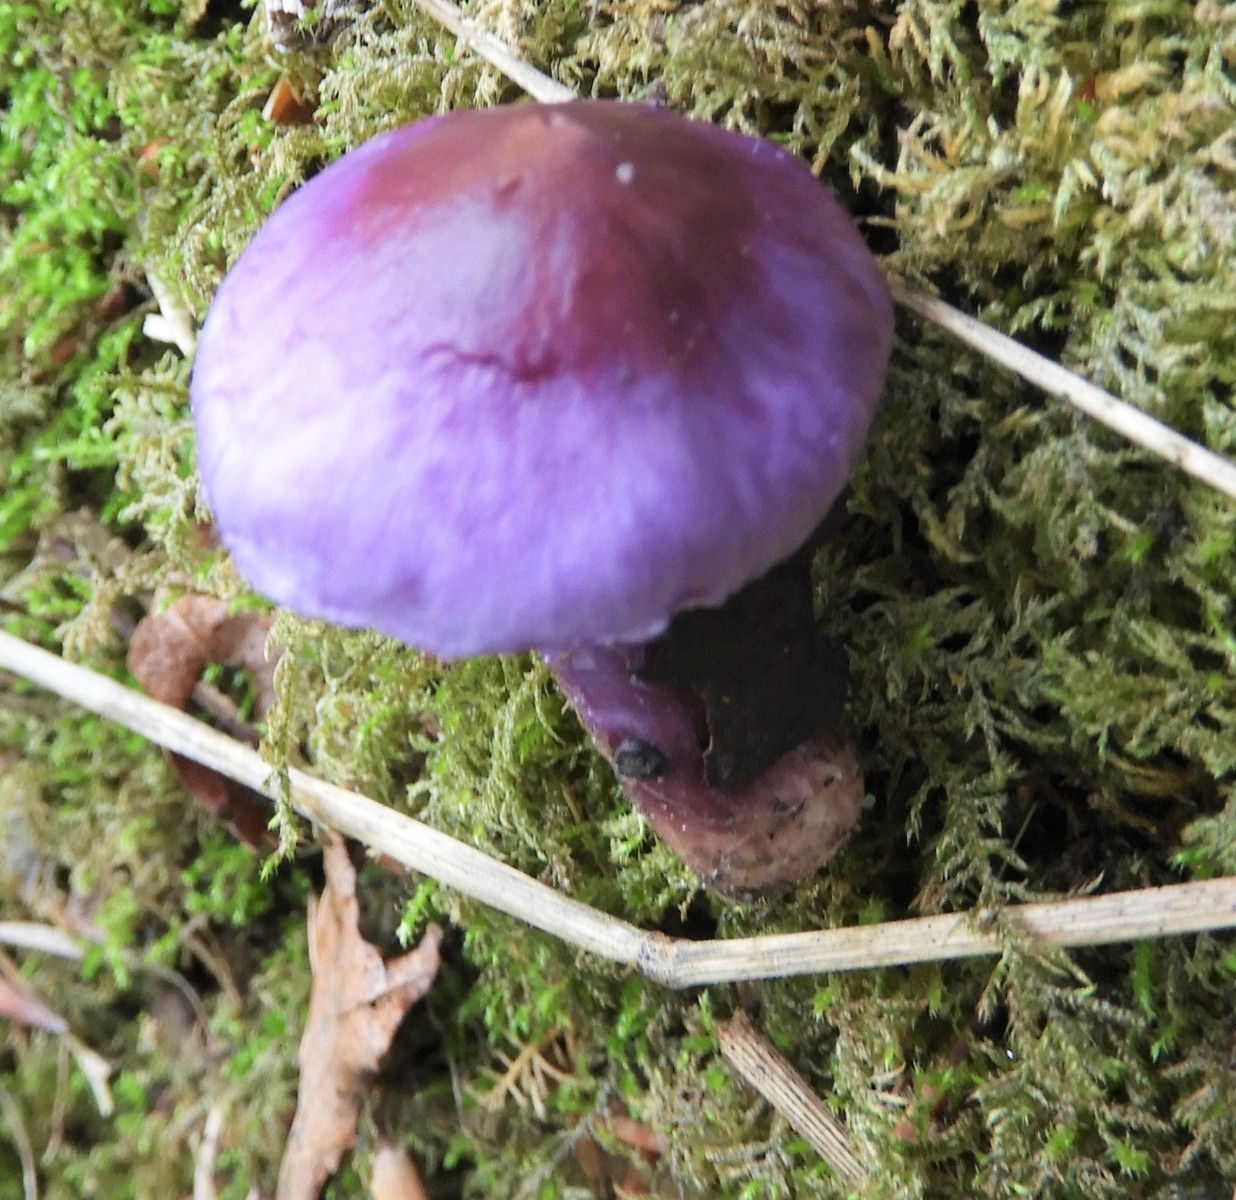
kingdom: Fungi
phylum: Basidiomycota
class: Agaricomycetes
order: Agaricales
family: Inocybaceae
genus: Inocybe
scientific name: Inocybe ionolepis
